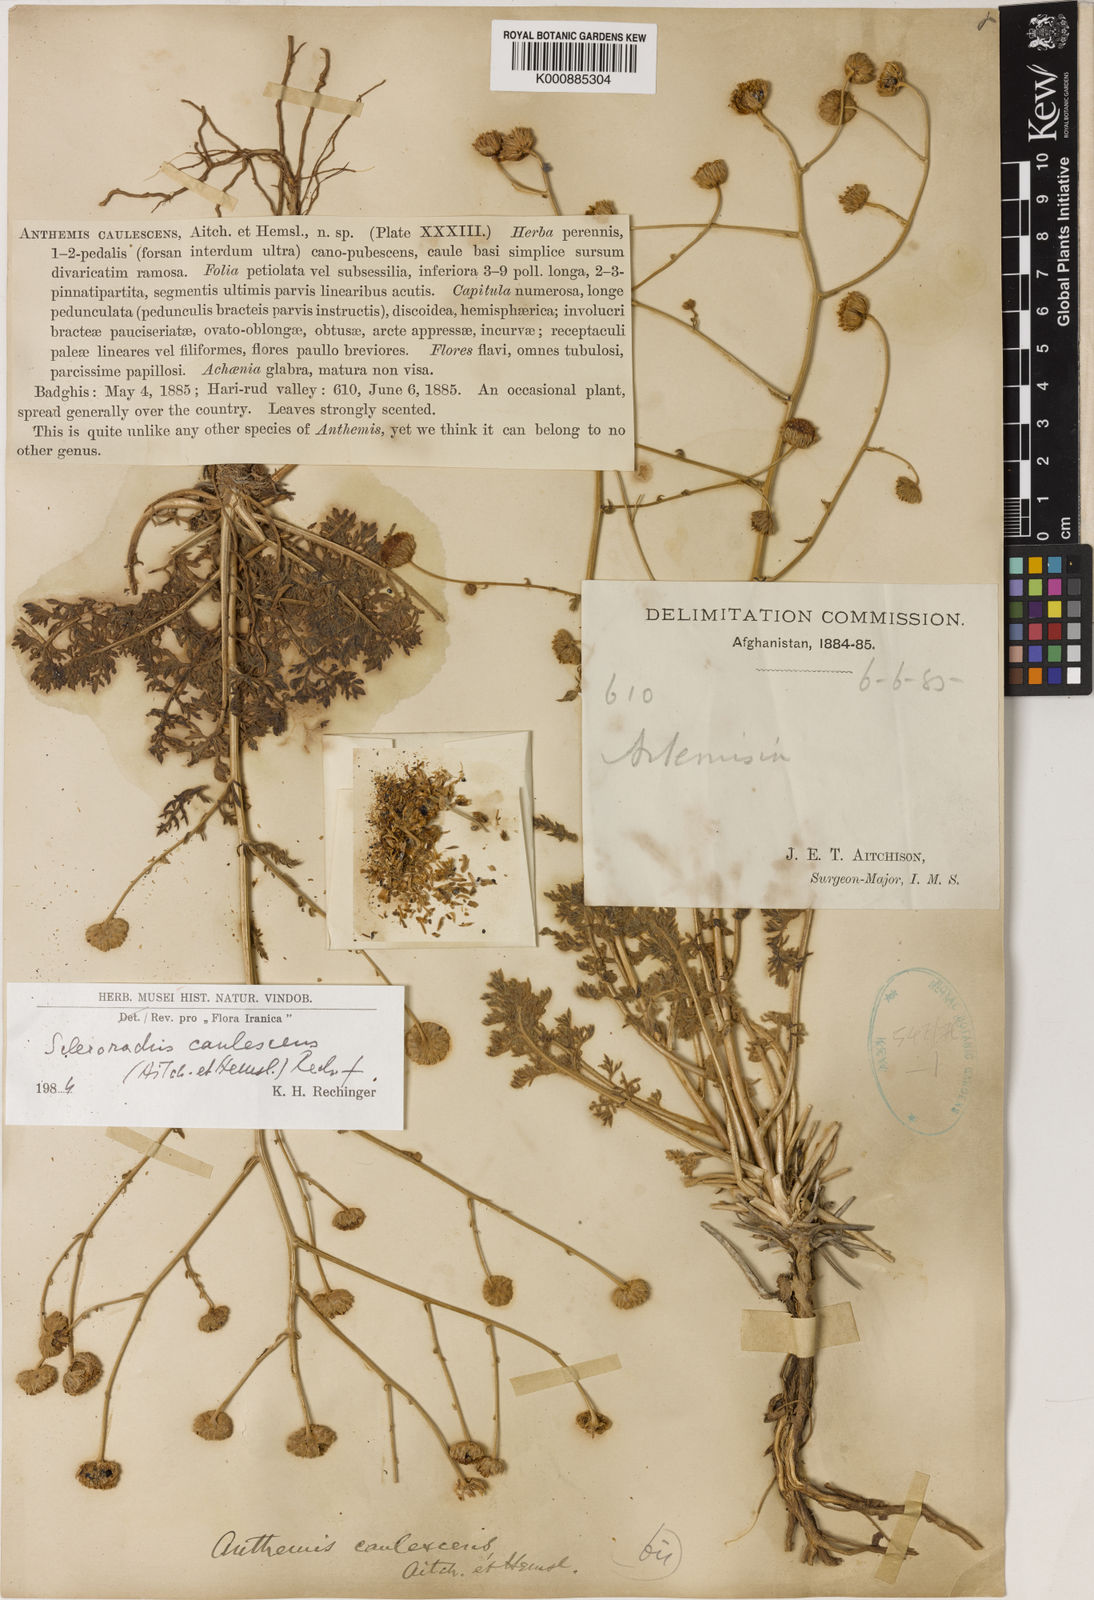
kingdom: Plantae
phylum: Tracheophyta
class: Magnoliopsida
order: Asterales
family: Asteraceae
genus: Sclerorhachis
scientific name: Sclerorhachis caulescens
